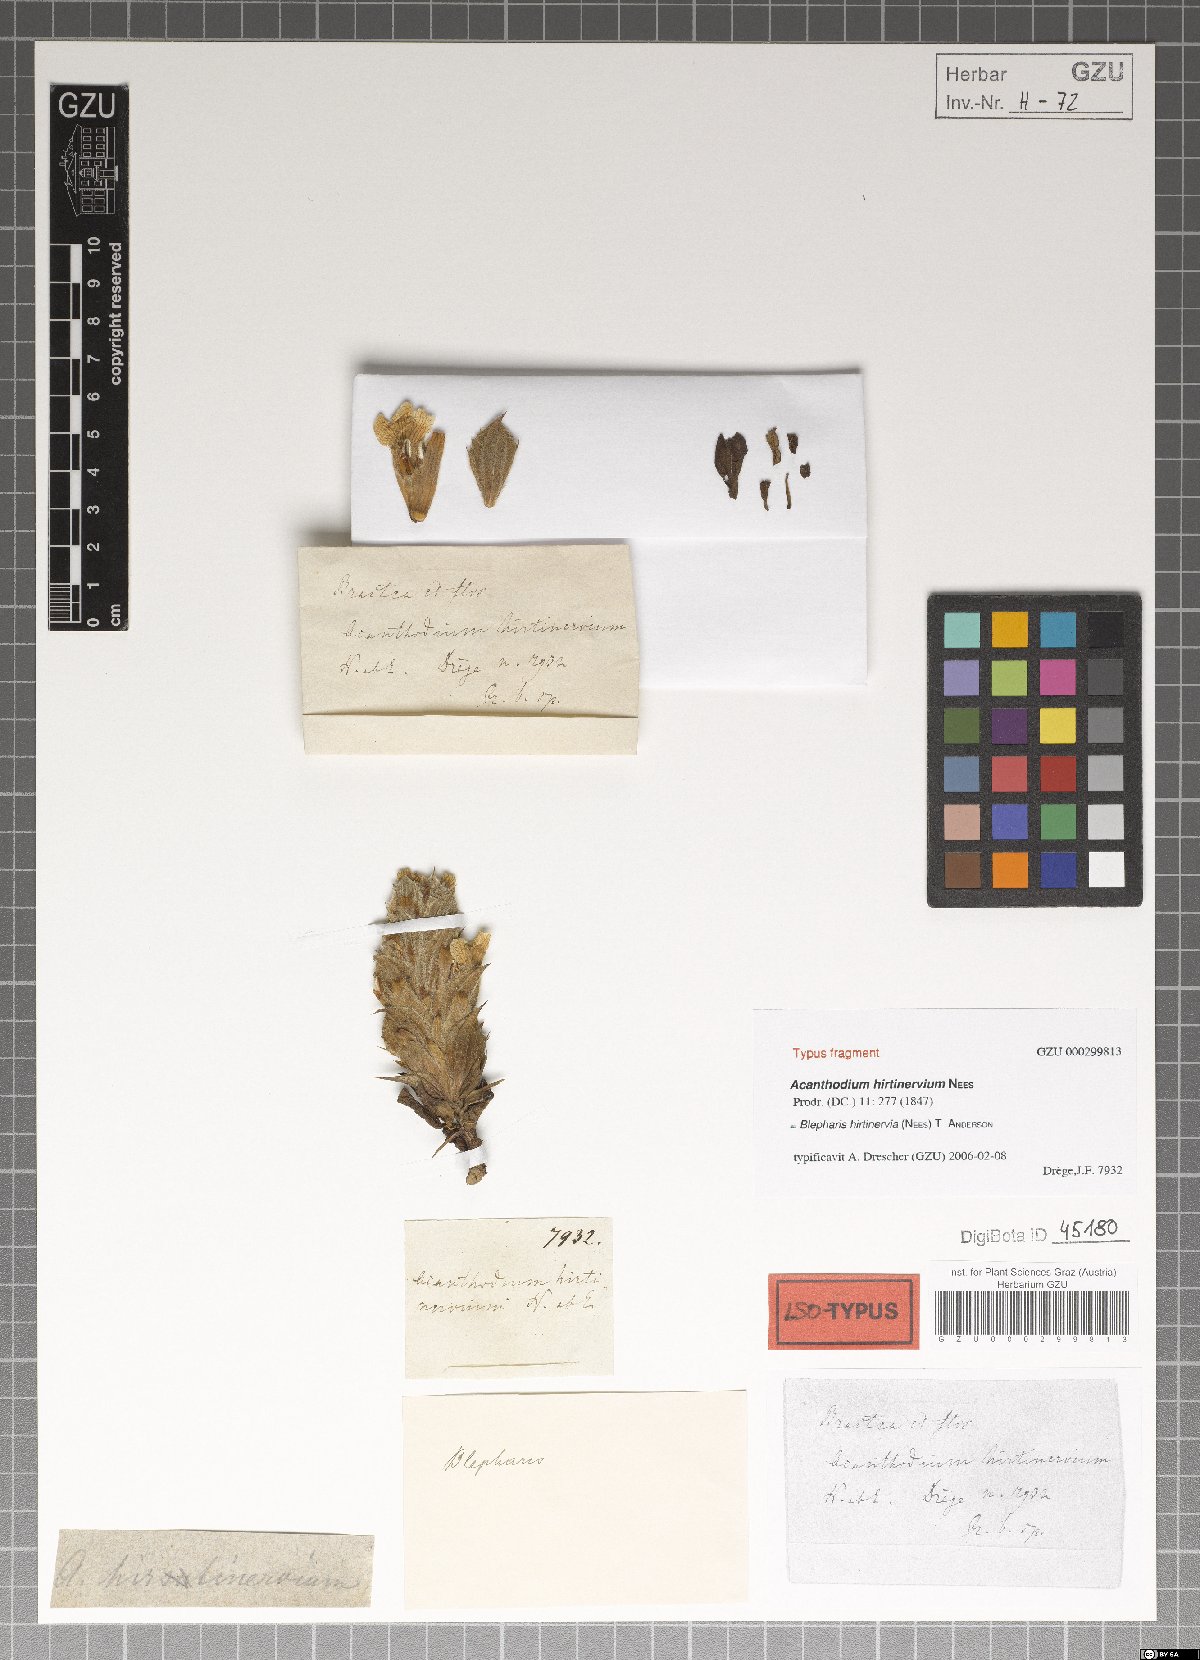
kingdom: Plantae
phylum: Tracheophyta
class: Magnoliopsida
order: Lamiales
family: Acanthaceae
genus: Blepharis
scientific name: Blepharis hirtinervia
